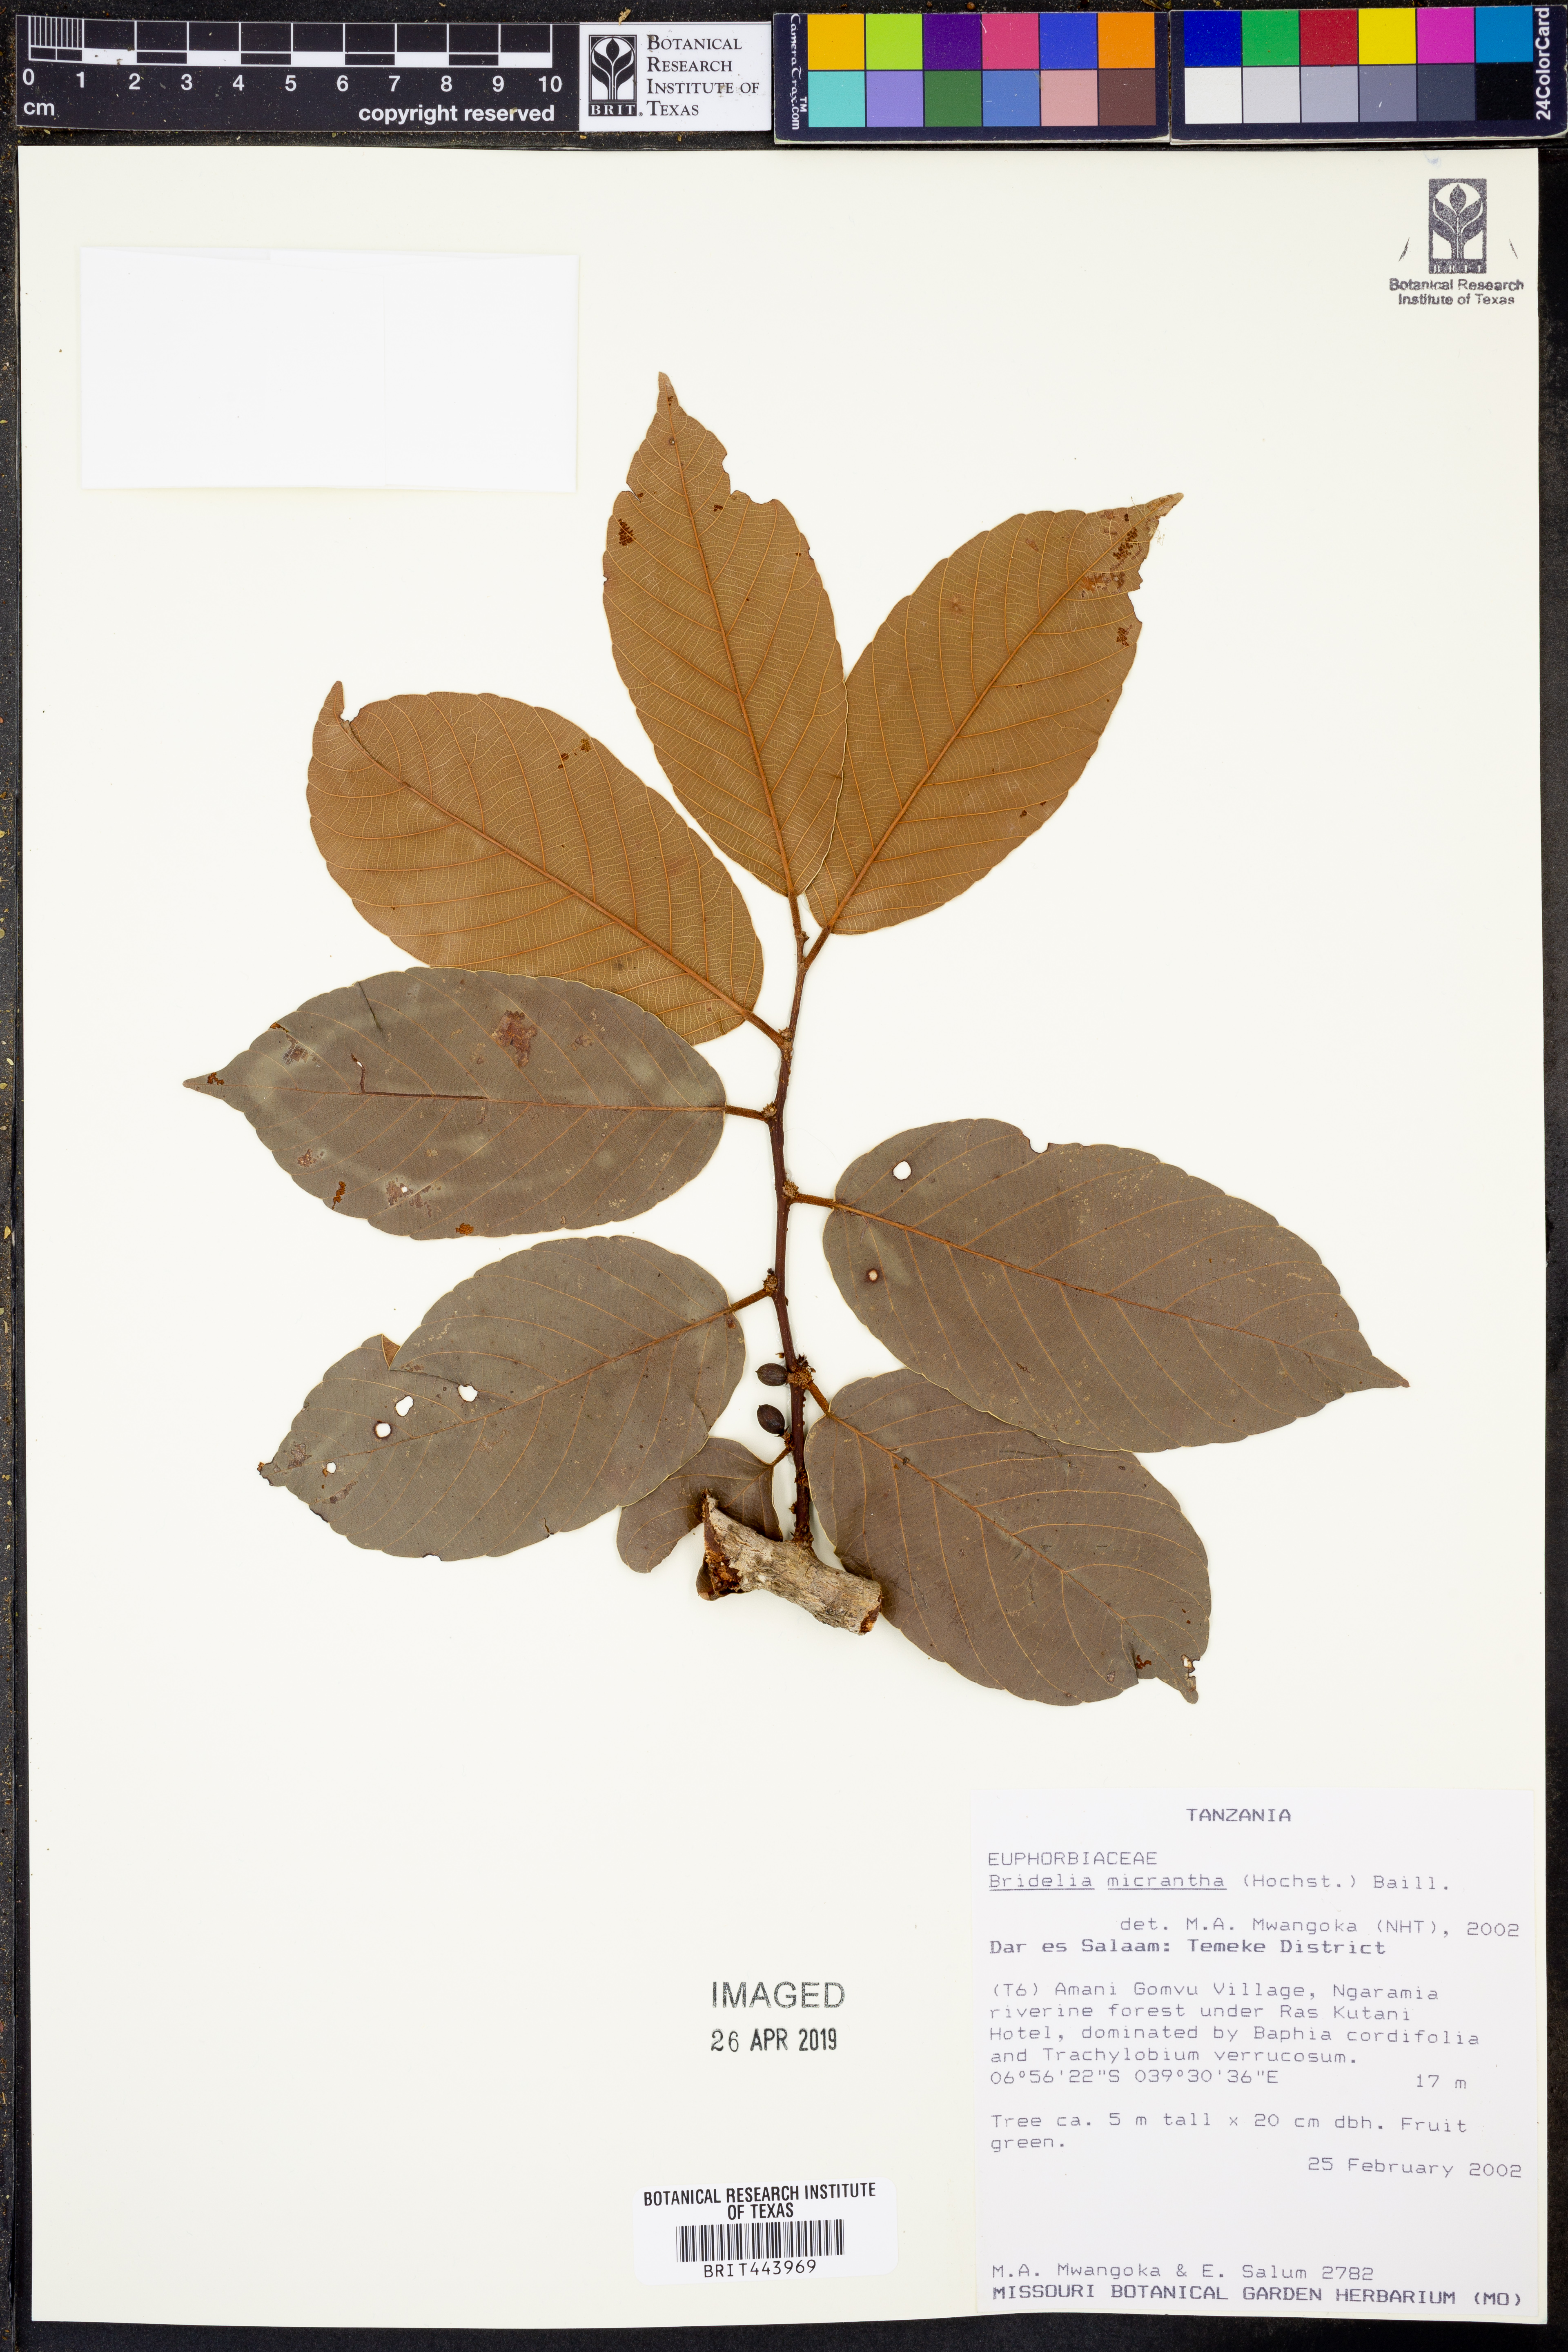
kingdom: Plantae
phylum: Tracheophyta
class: Magnoliopsida
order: Malpighiales
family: Phyllanthaceae
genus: Bridelia
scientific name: Bridelia micrantha
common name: Bridelia
